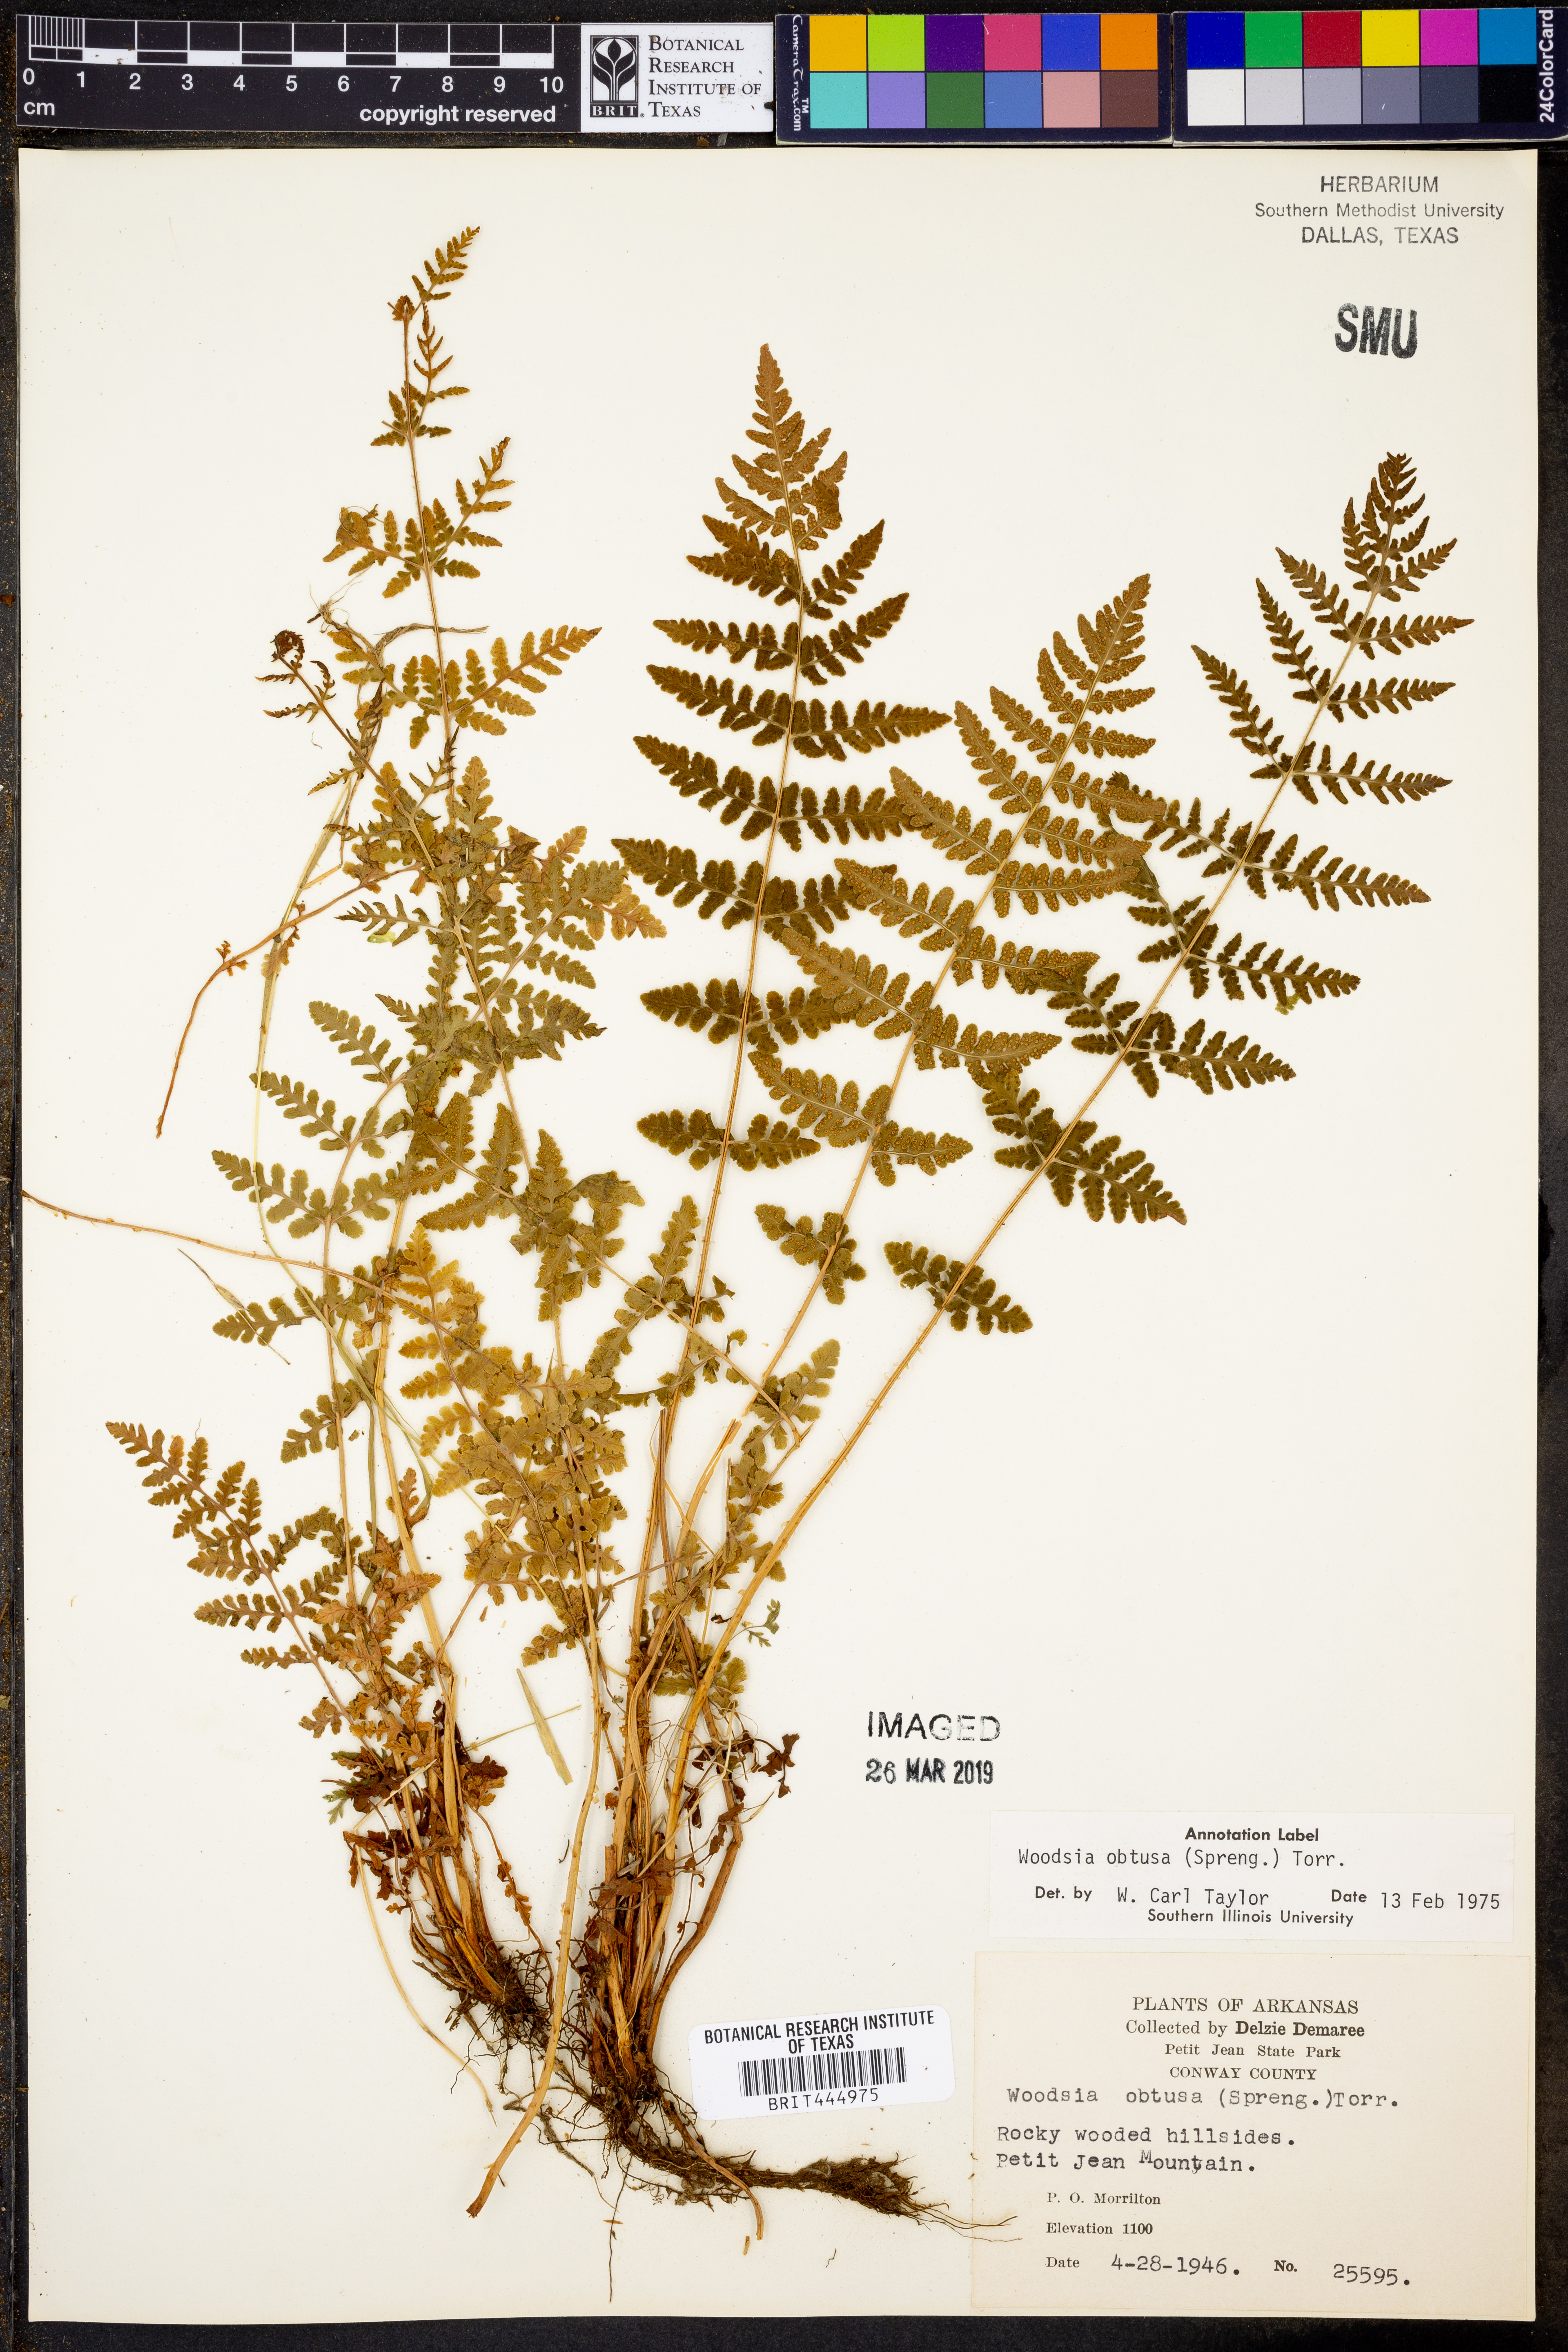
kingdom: Plantae
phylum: Tracheophyta
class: Polypodiopsida
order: Polypodiales
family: Woodsiaceae
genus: Physematium
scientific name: Physematium obtusum
